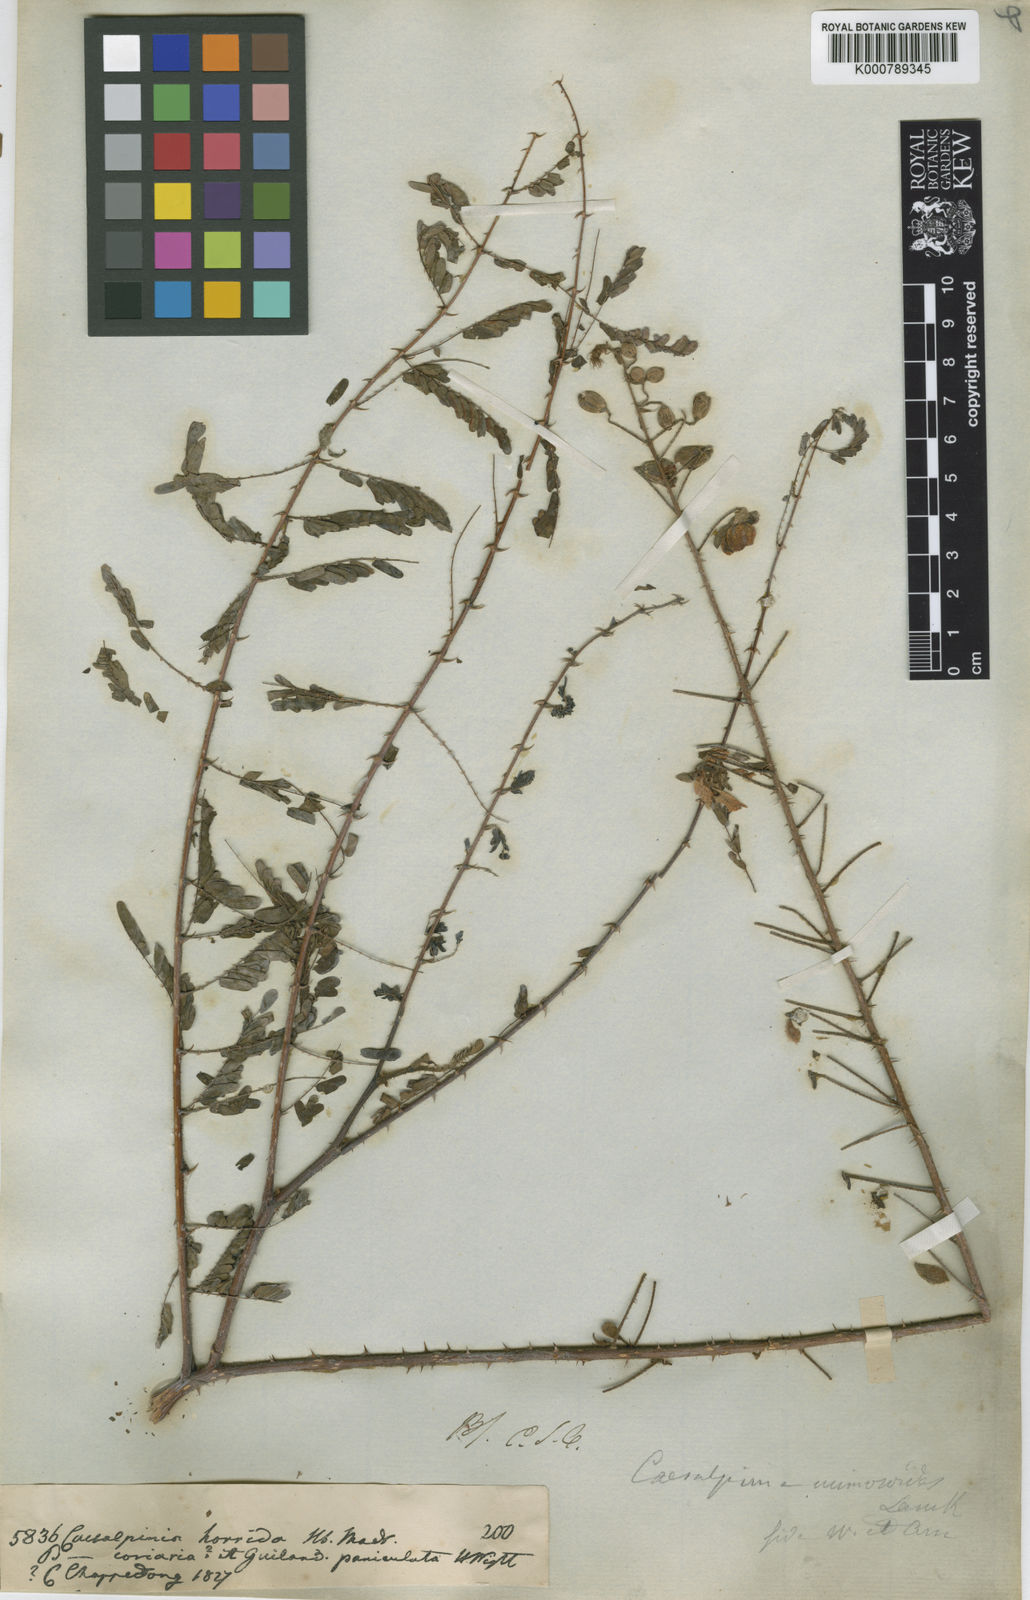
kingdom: Plantae
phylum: Tracheophyta
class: Magnoliopsida
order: Fabales
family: Fabaceae
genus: Hultholia
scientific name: Hultholia mimosoides
